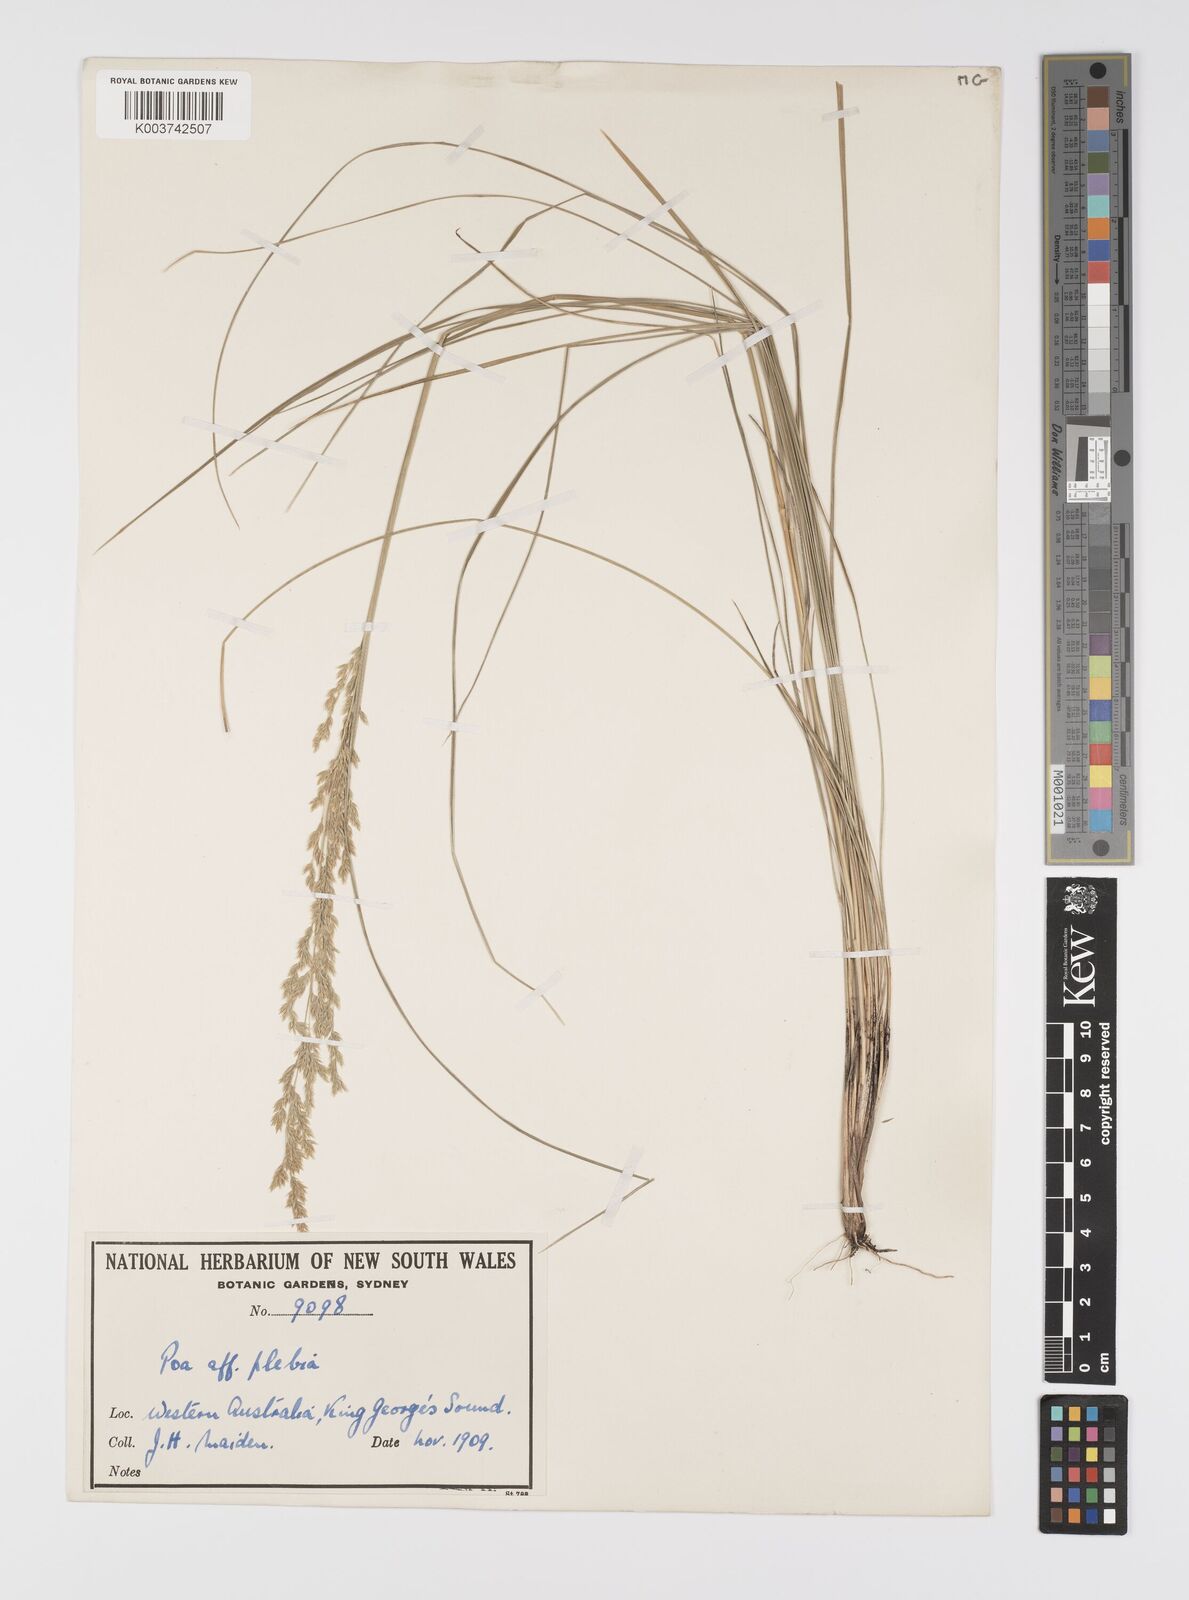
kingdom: Plantae
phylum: Tracheophyta
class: Liliopsida
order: Poales
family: Poaceae
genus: Poa
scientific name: Poa
